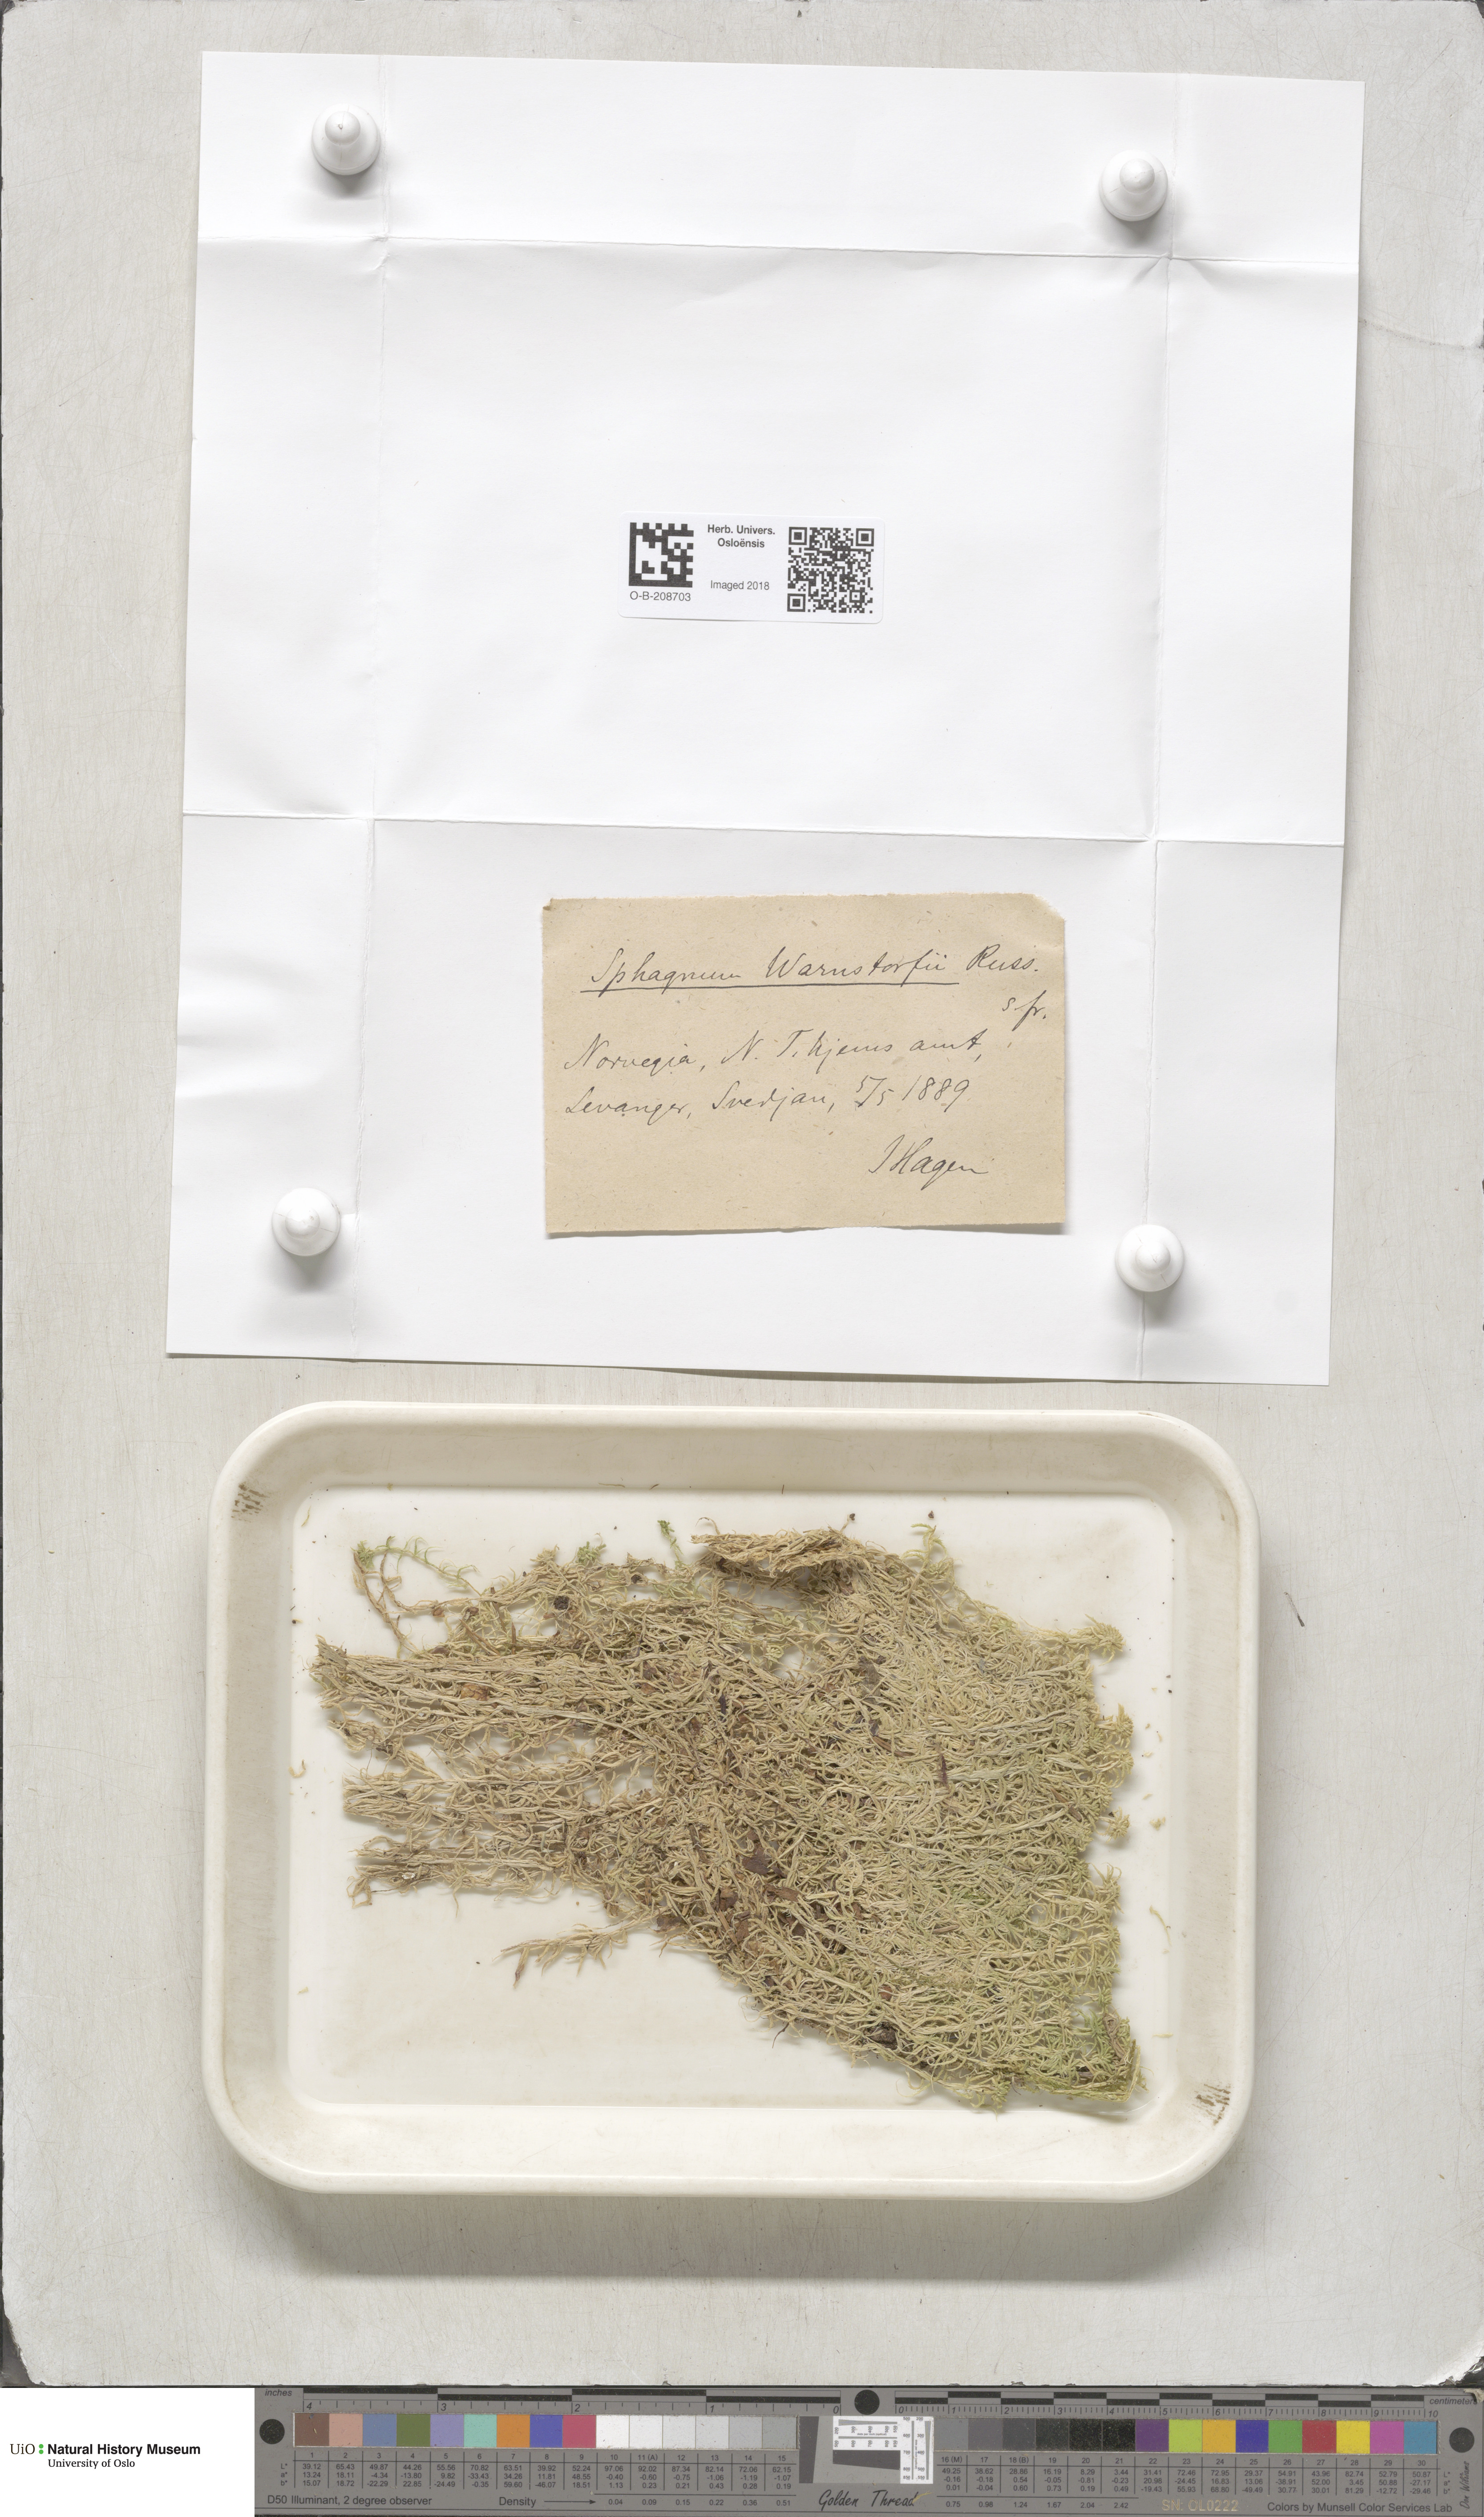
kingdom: Plantae
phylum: Bryophyta
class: Sphagnopsida
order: Sphagnales
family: Sphagnaceae
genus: Sphagnum
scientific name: Sphagnum warnstorfii
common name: Warnstorf's peat moss
